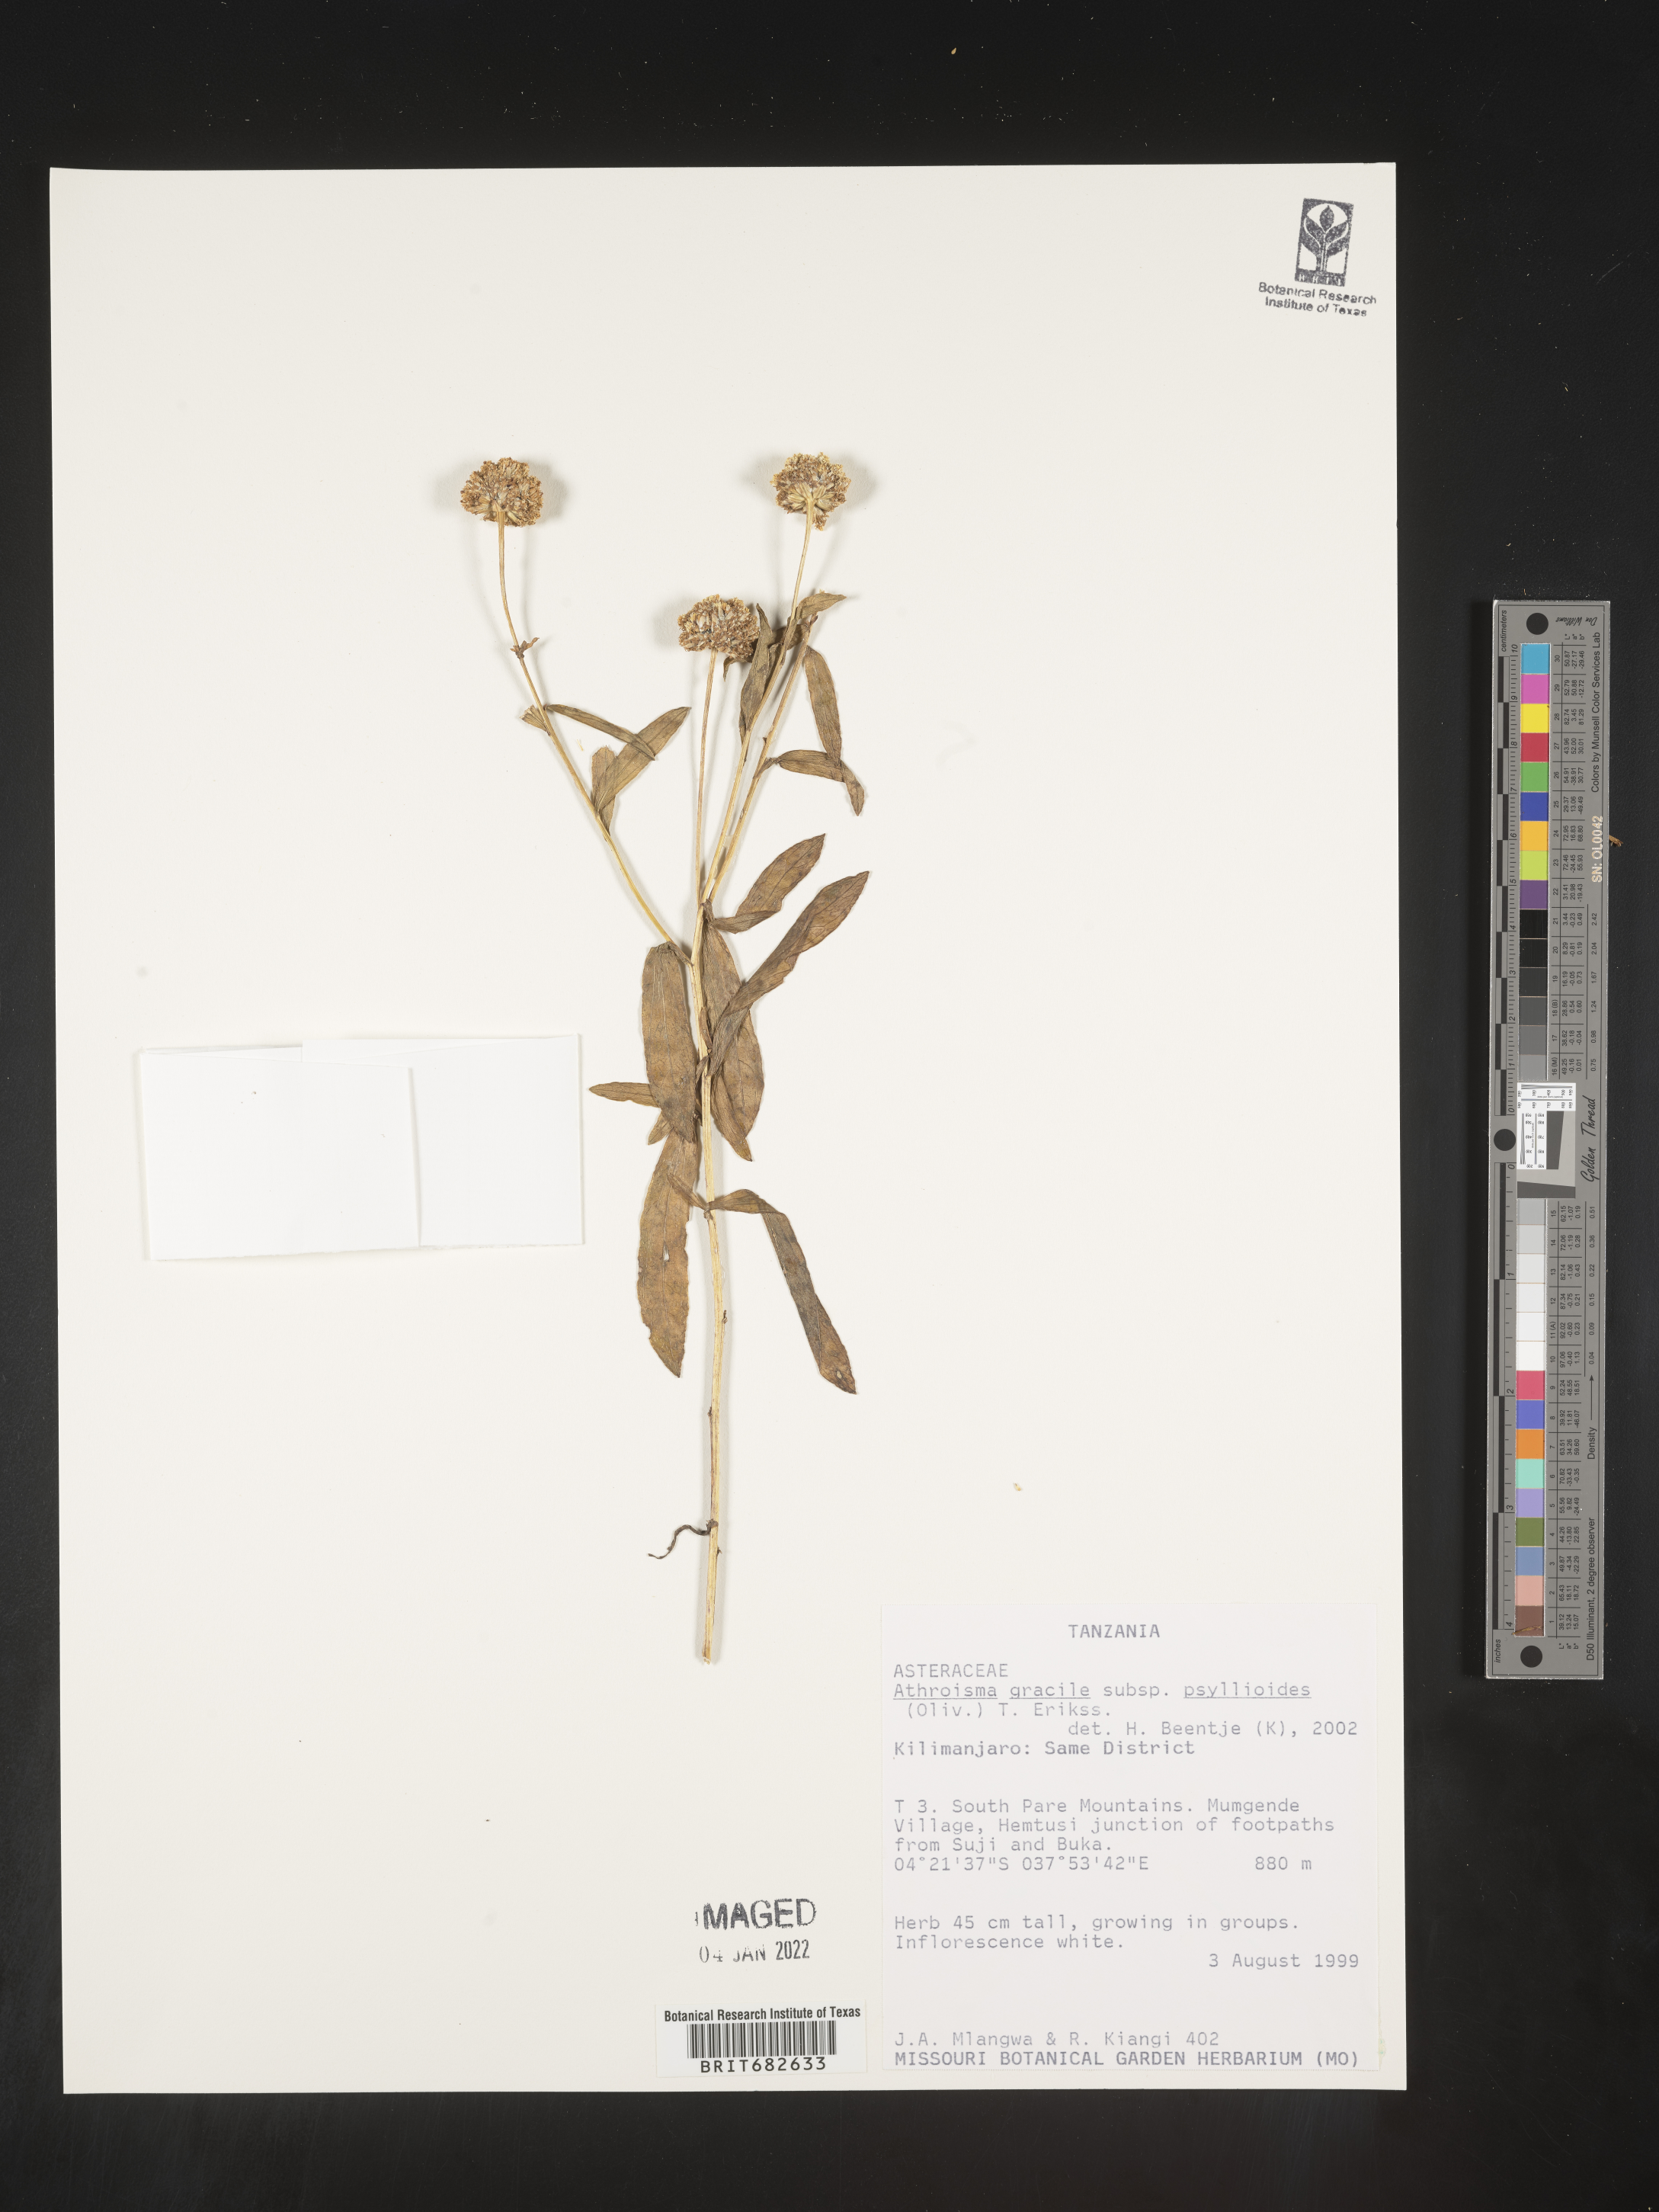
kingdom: Plantae
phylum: Tracheophyta
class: Magnoliopsida
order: Asterales
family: Asteraceae
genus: Athroisma
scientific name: Athroisma
